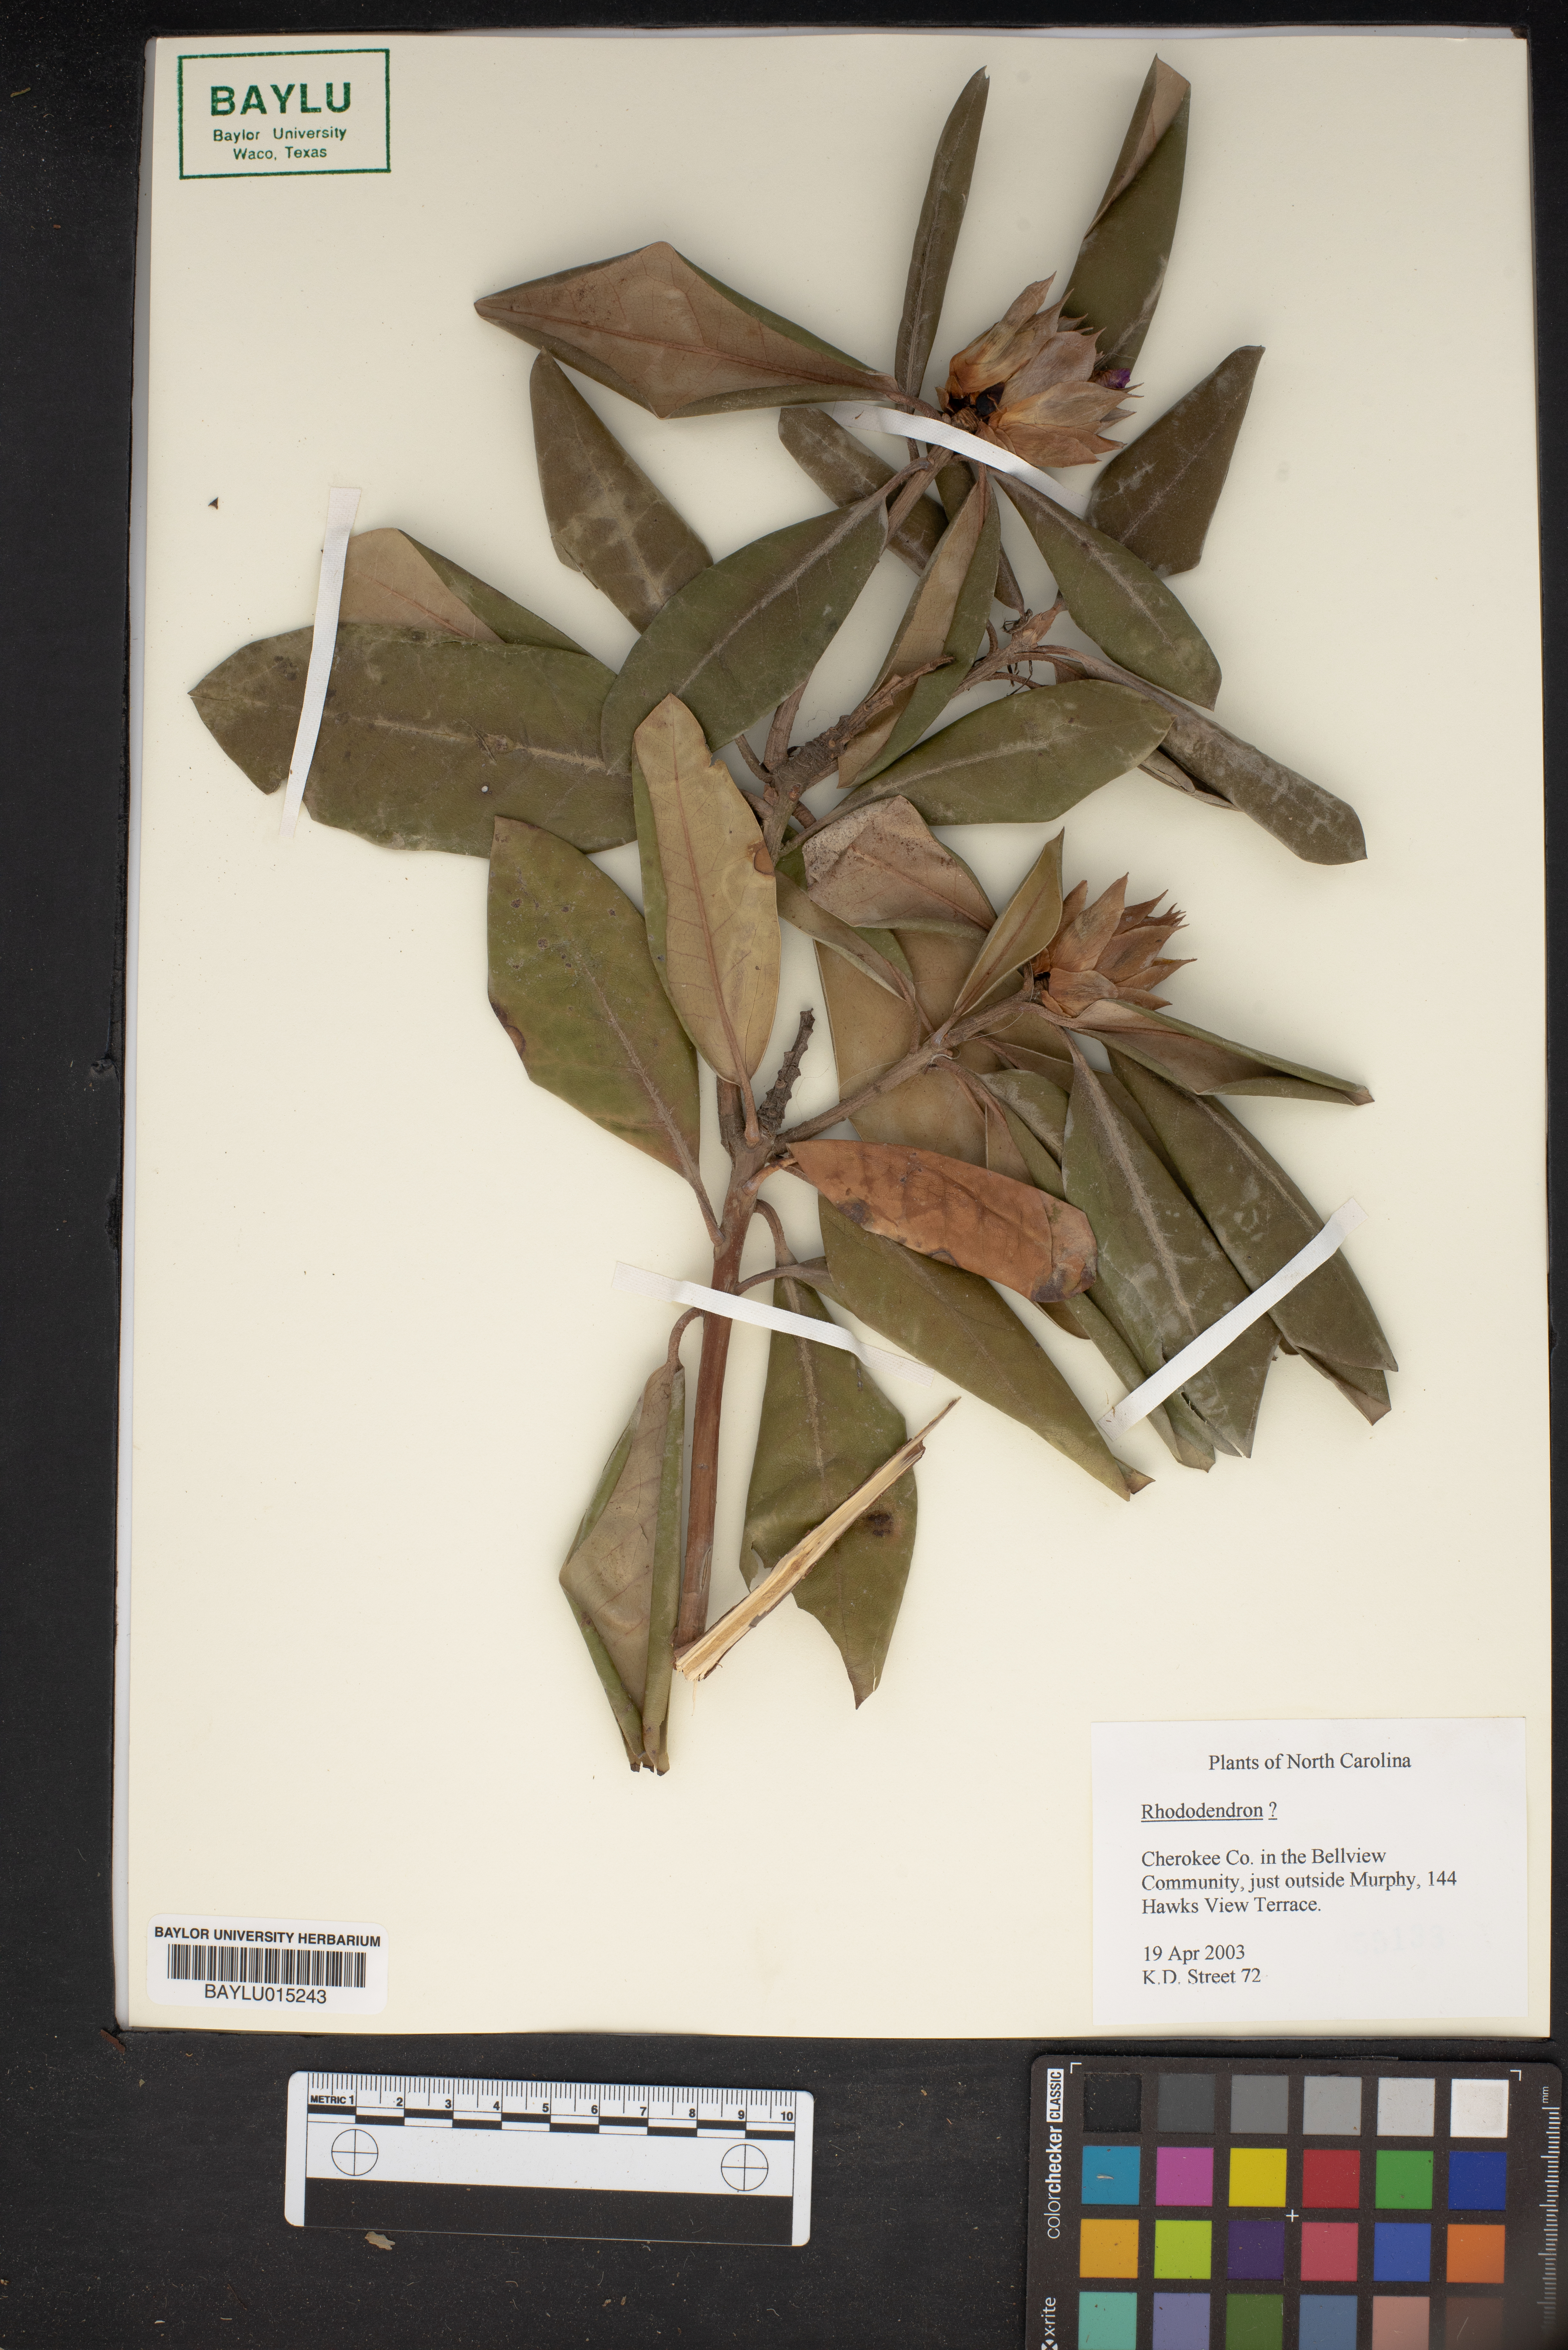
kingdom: Plantae
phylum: Tracheophyta
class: Magnoliopsida
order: Ericales
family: Ericaceae
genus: Rhododendron
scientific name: Rhododendron
